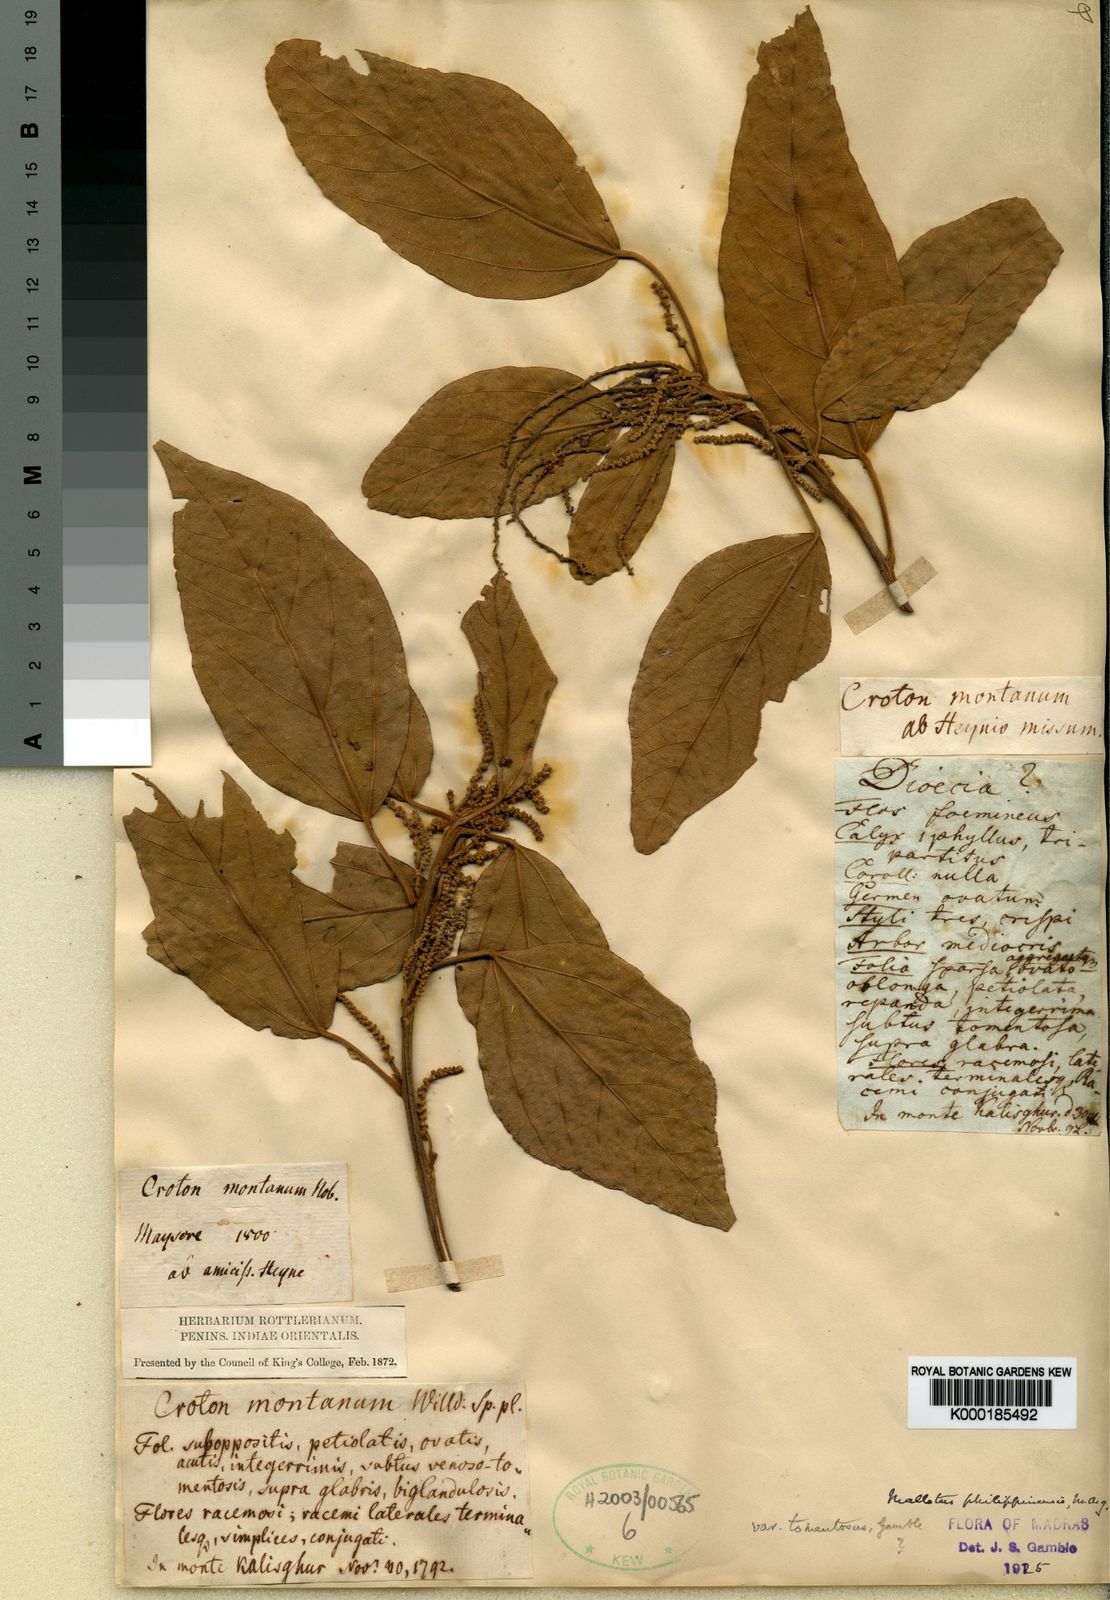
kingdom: Plantae
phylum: Tracheophyta
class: Magnoliopsida
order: Malpighiales
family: Euphorbiaceae
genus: Mallotus
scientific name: Mallotus philippensis
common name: Kamala tree
